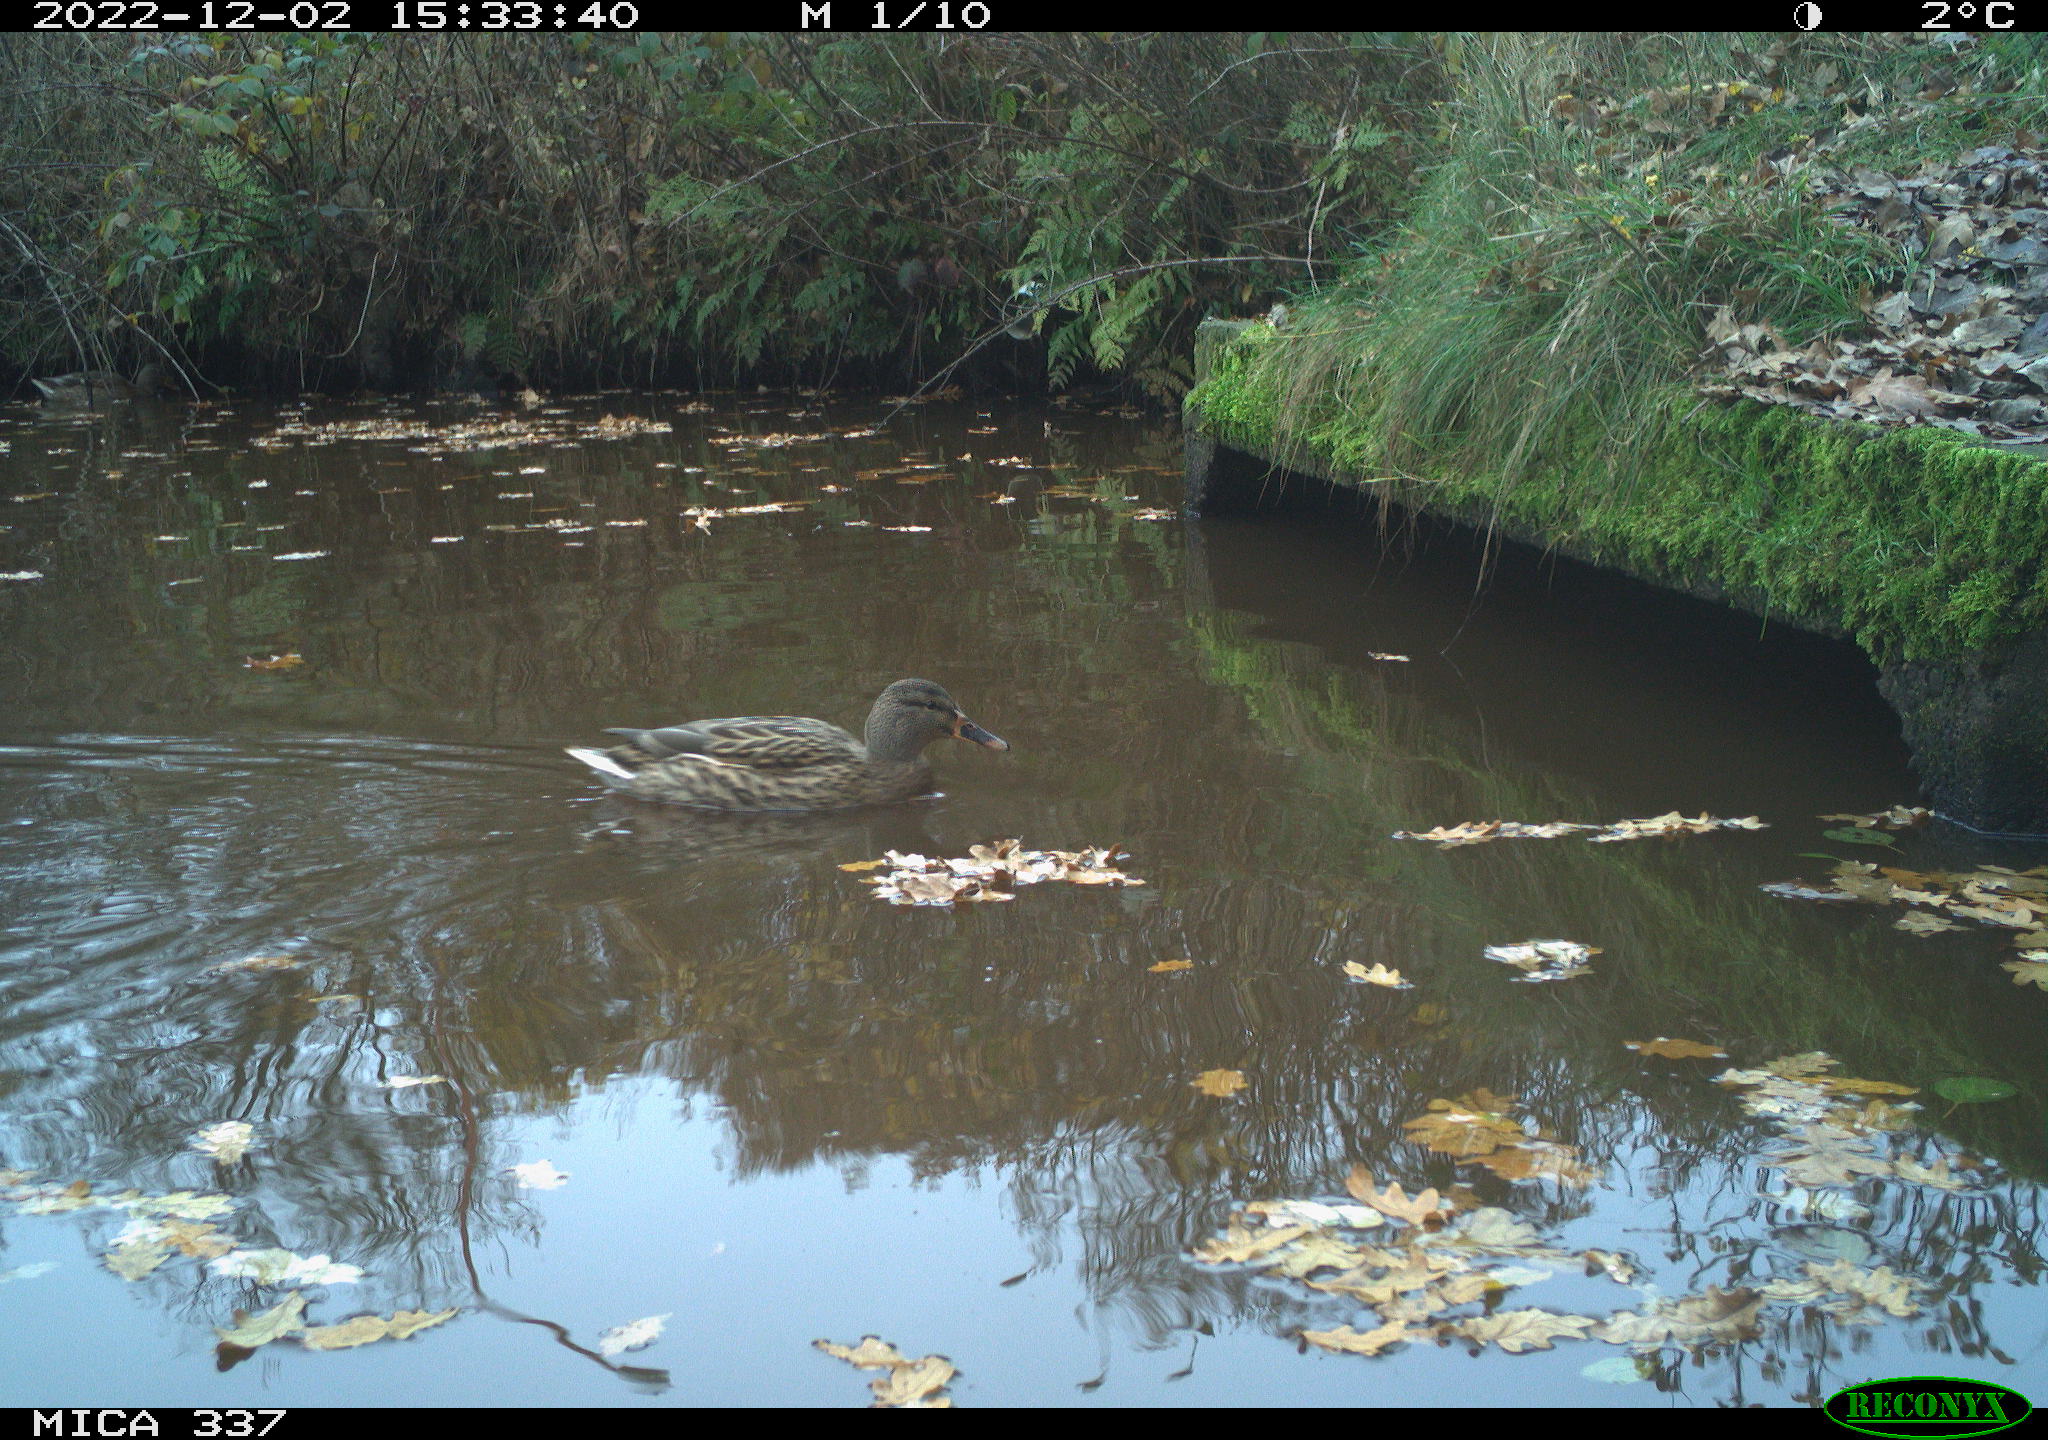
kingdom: Animalia
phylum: Chordata
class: Aves
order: Anseriformes
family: Anatidae
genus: Anas
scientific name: Anas
